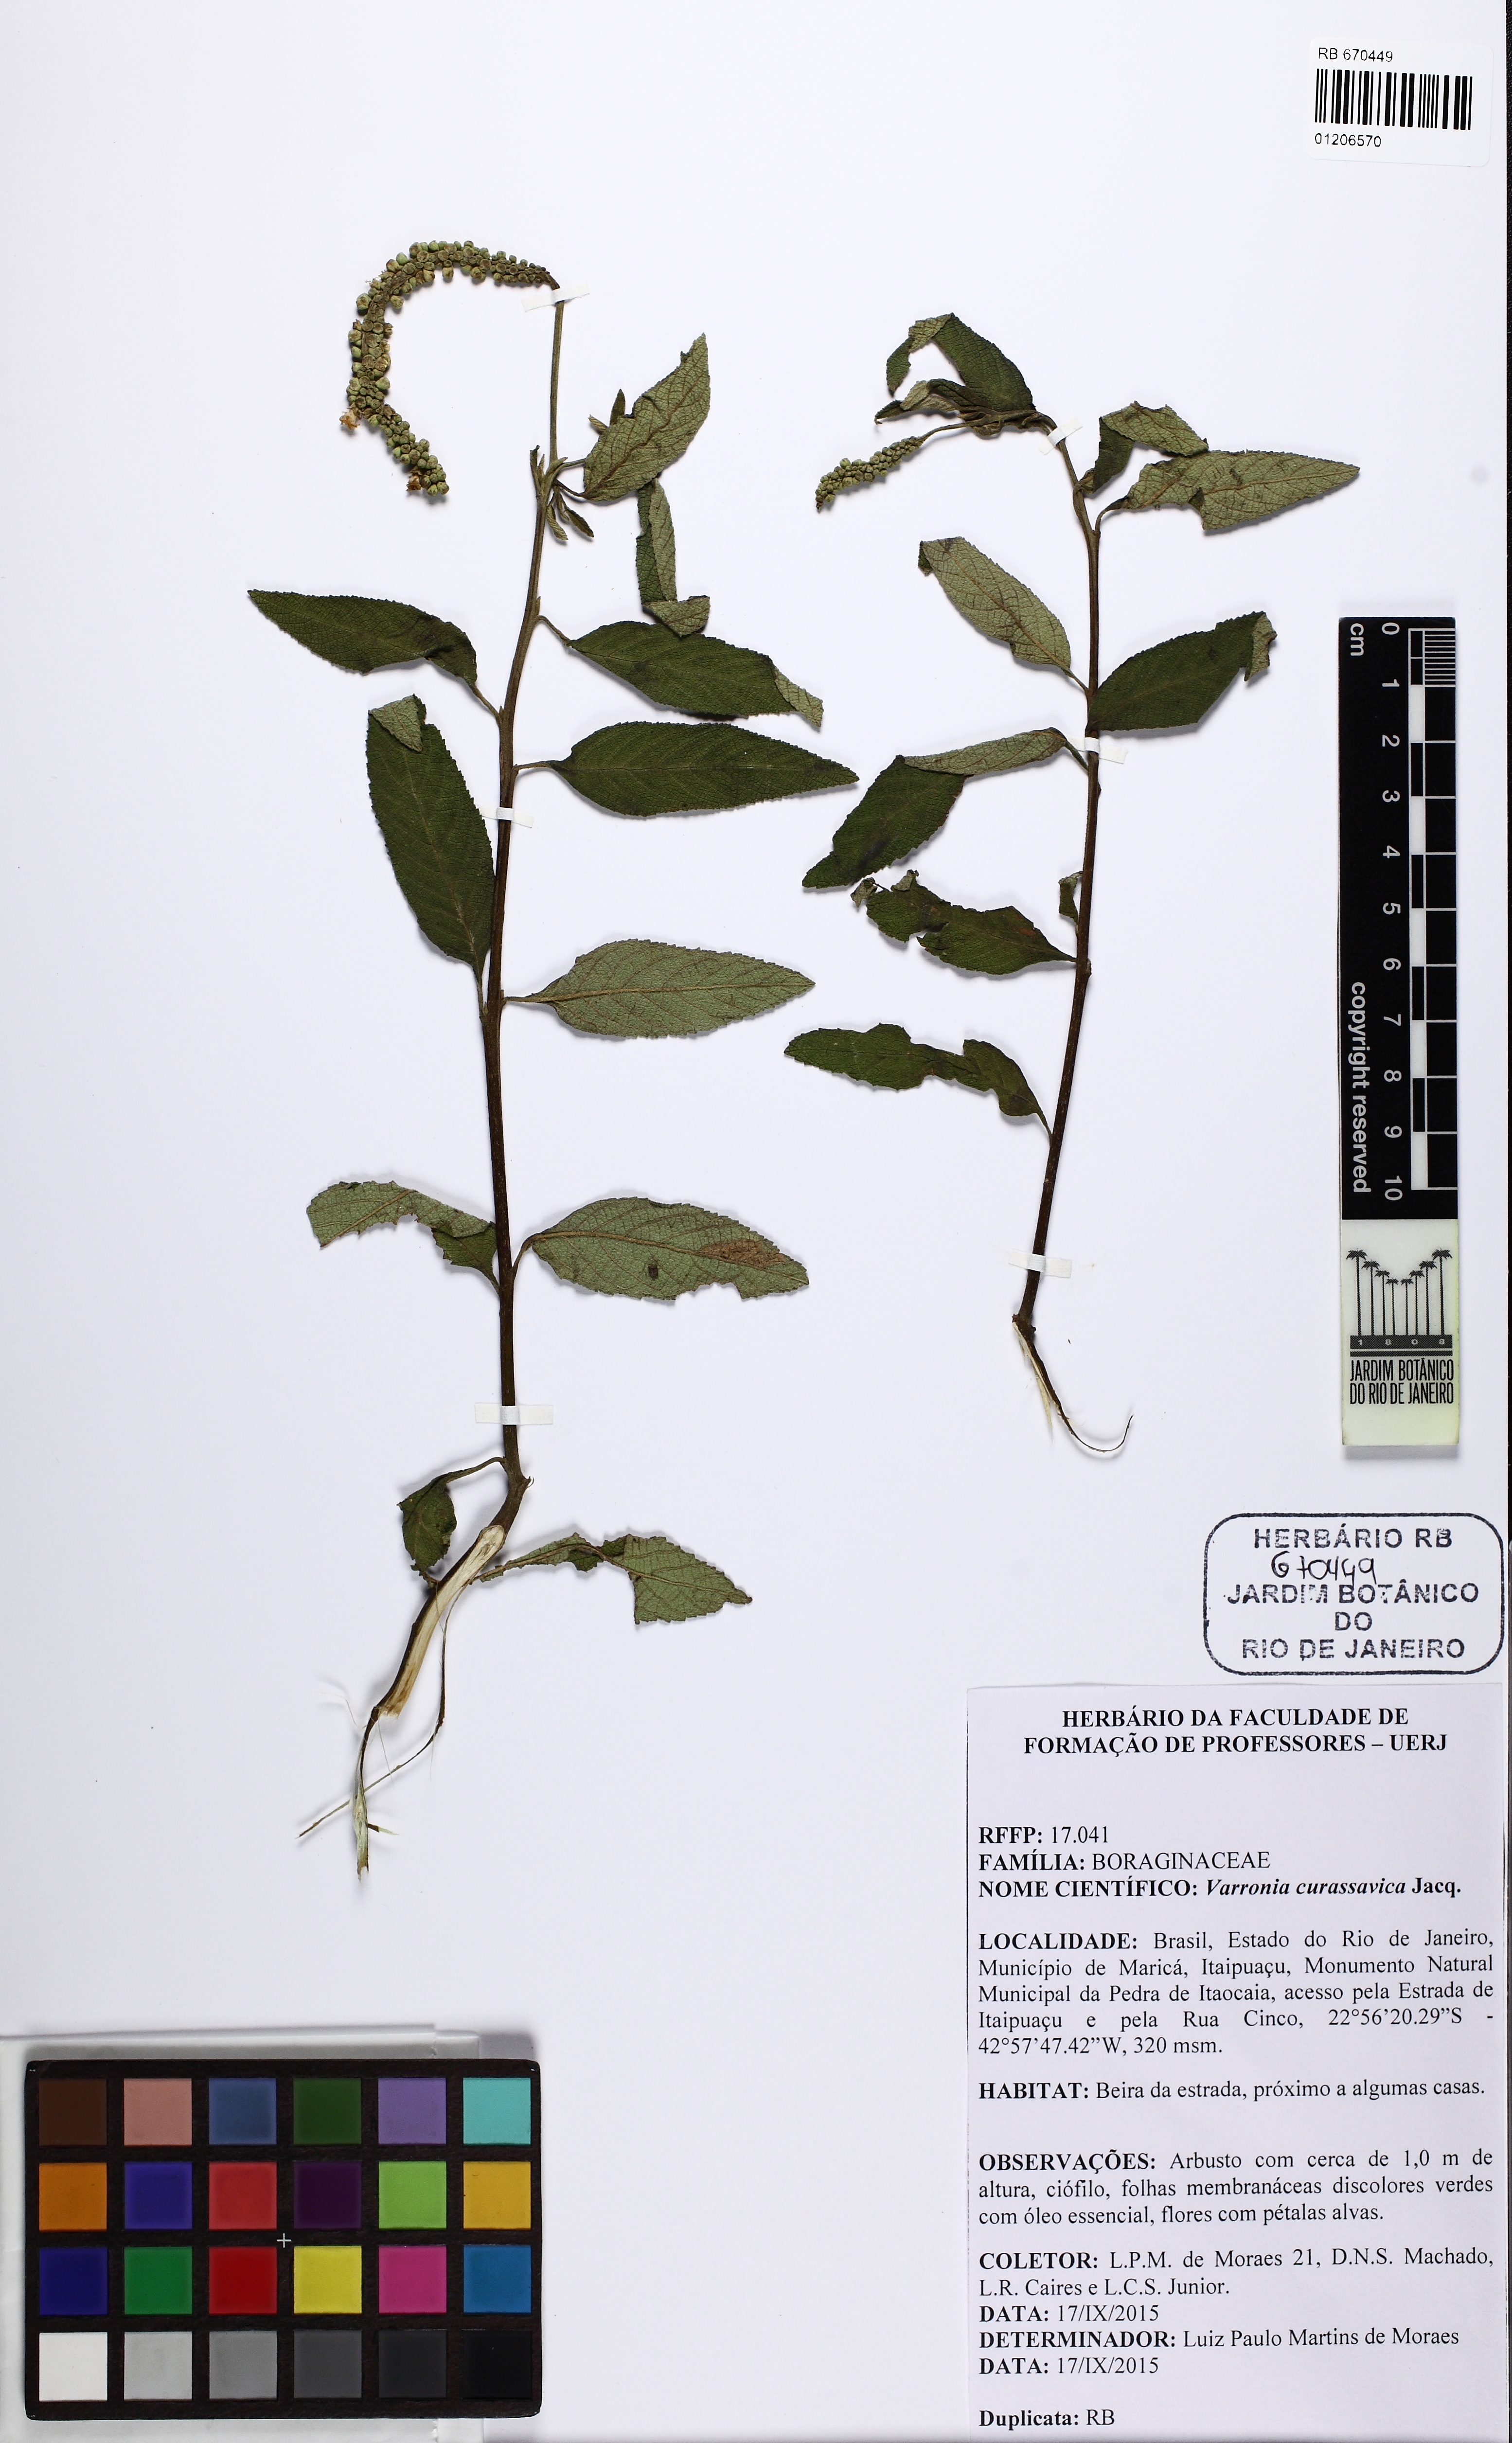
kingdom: Plantae
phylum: Tracheophyta
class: Magnoliopsida
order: Boraginales
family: Cordiaceae
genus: Varronia
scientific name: Varronia curassavica
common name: Black sage
